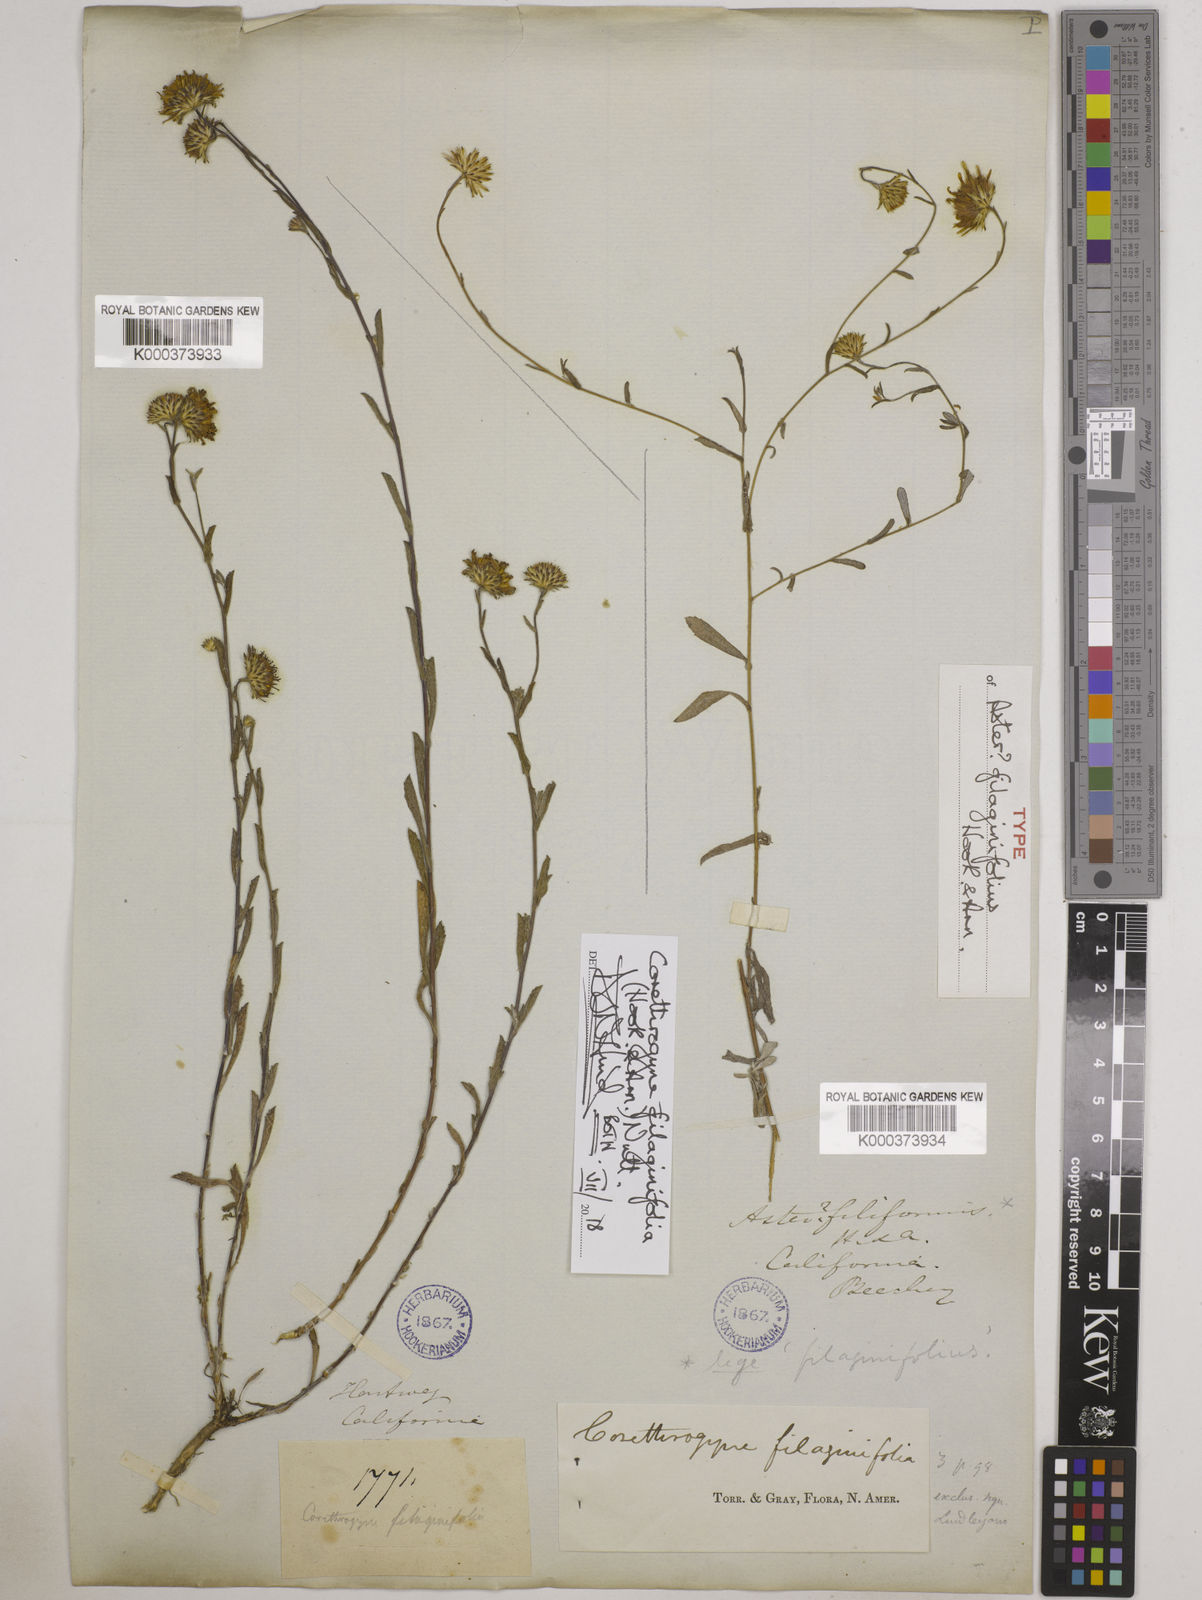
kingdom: Plantae
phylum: Tracheophyta
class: Magnoliopsida
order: Asterales
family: Asteraceae
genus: Corethrogyne
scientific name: Corethrogyne filaginifolia
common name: Sand-aster
